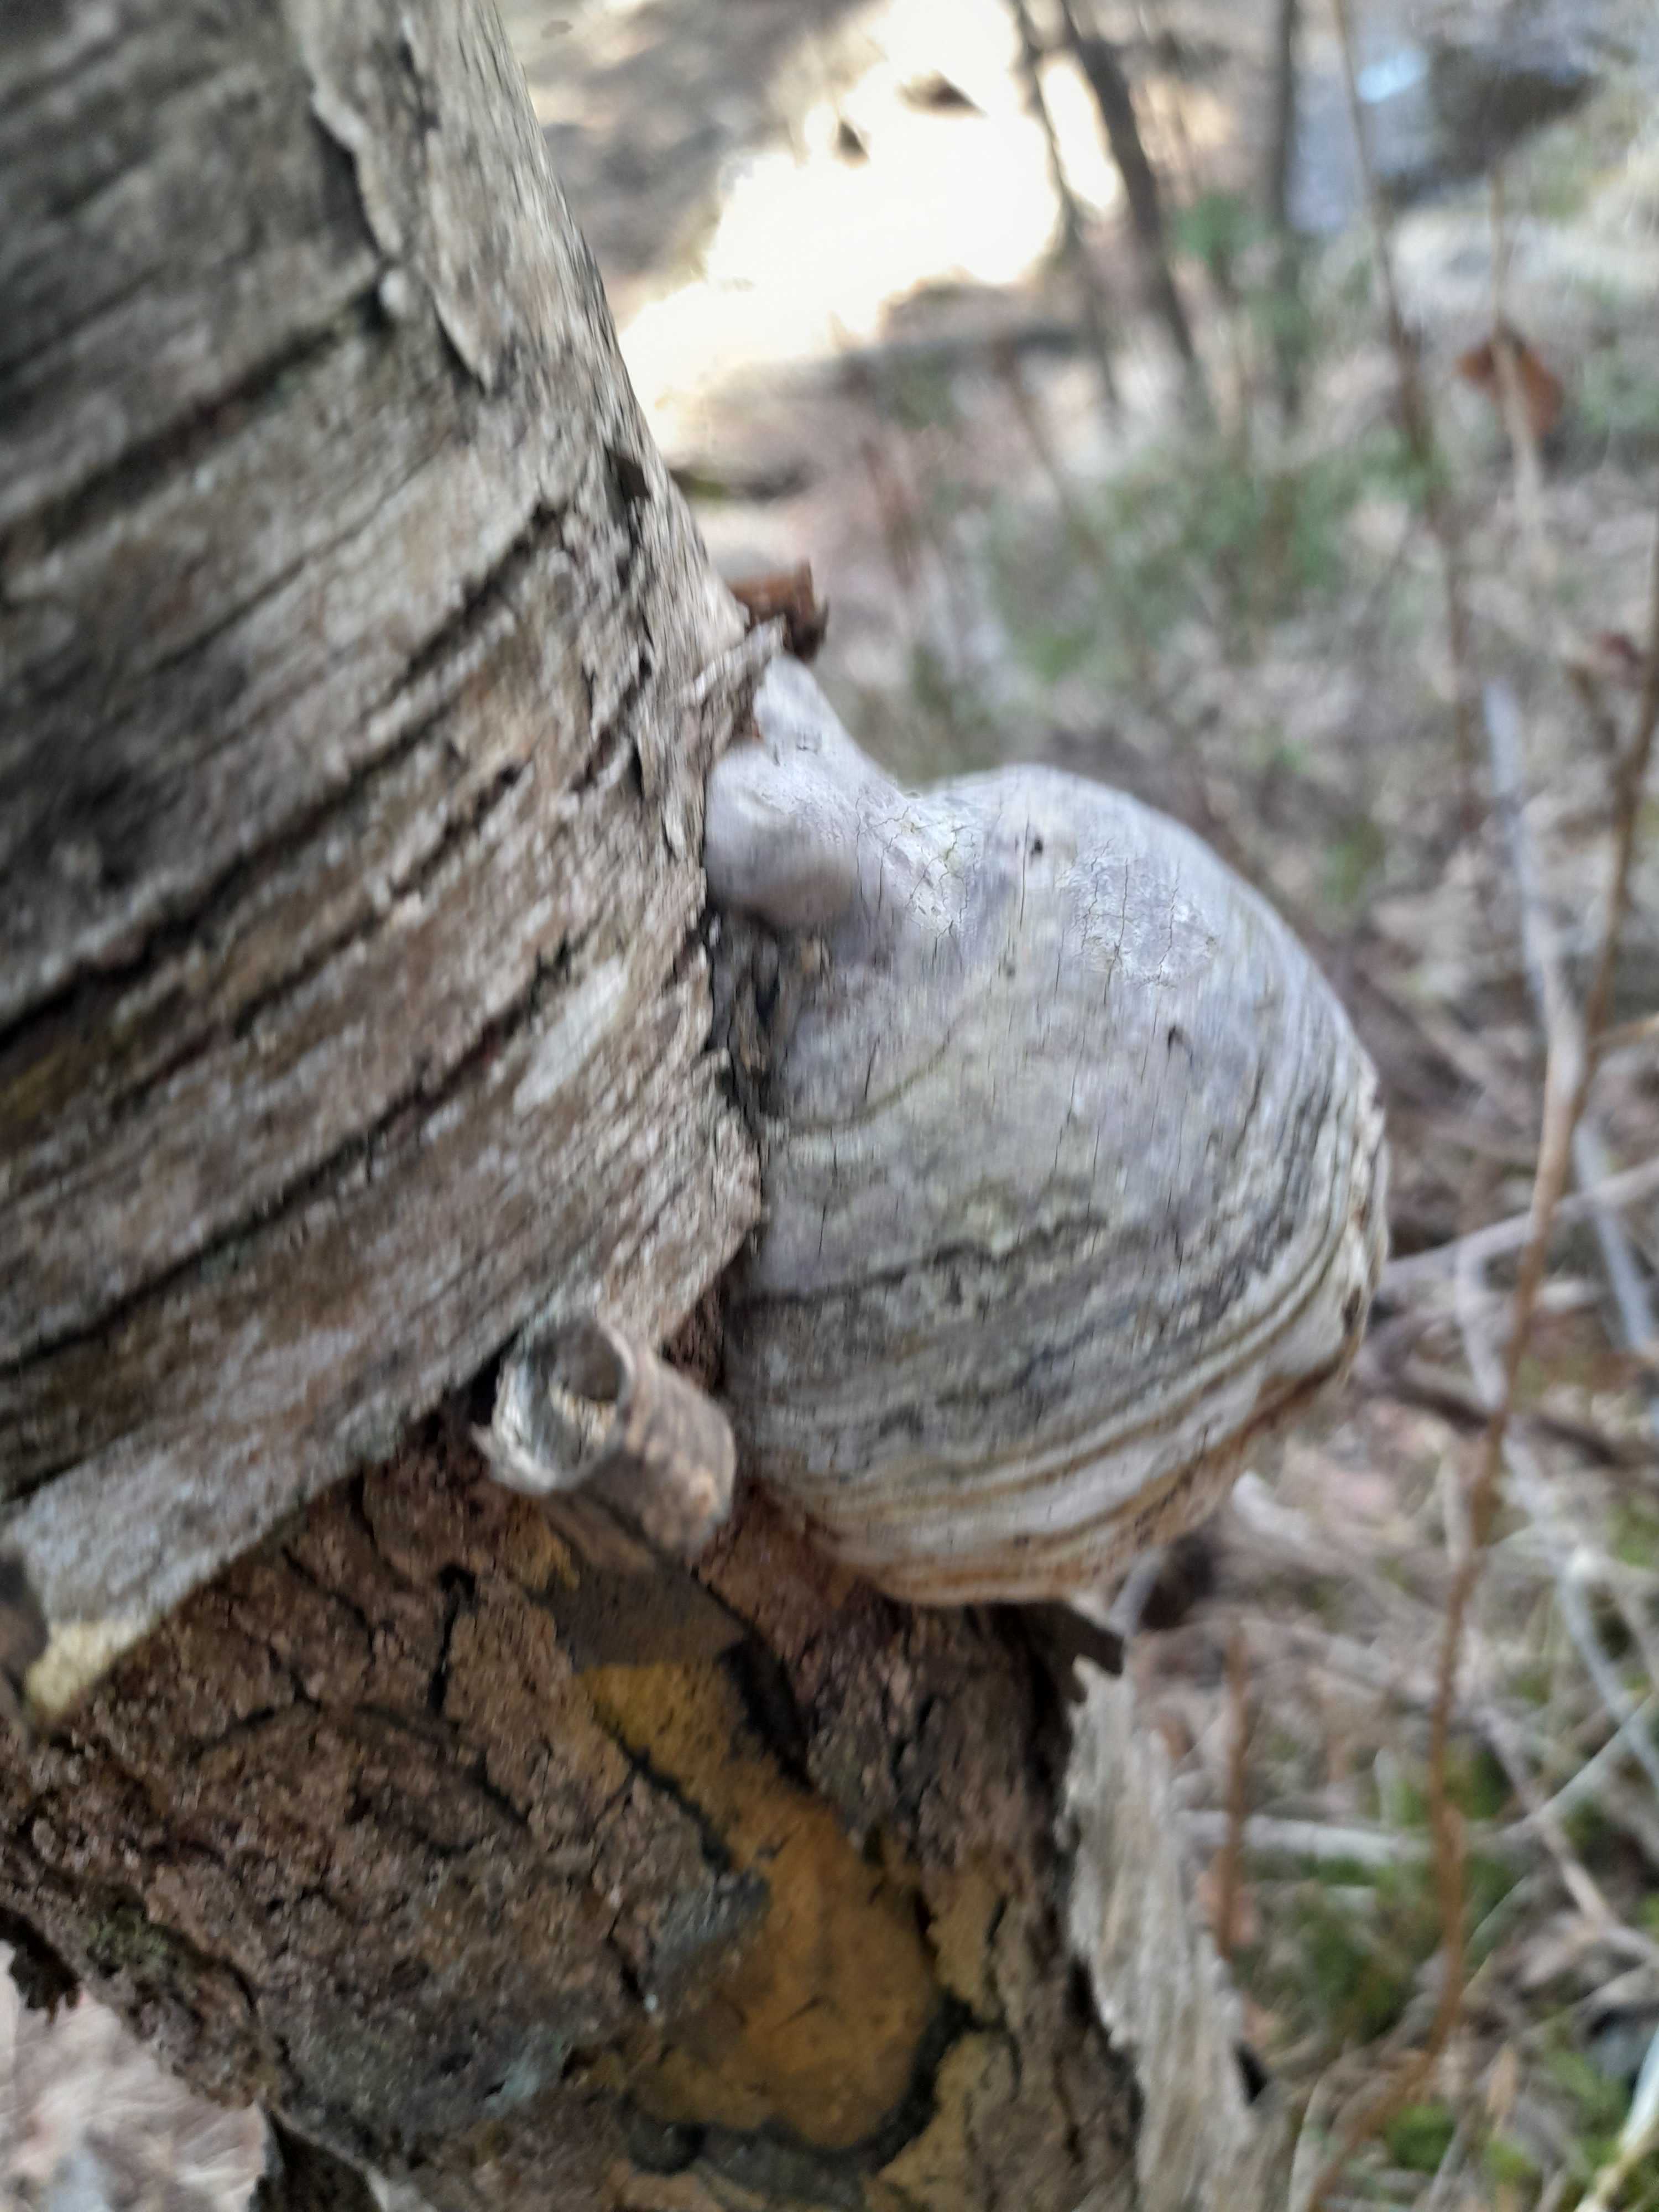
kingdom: Fungi
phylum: Basidiomycota
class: Agaricomycetes
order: Polyporales
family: Polyporaceae
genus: Fomes
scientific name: Fomes fomentarius
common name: tøndersvamp
